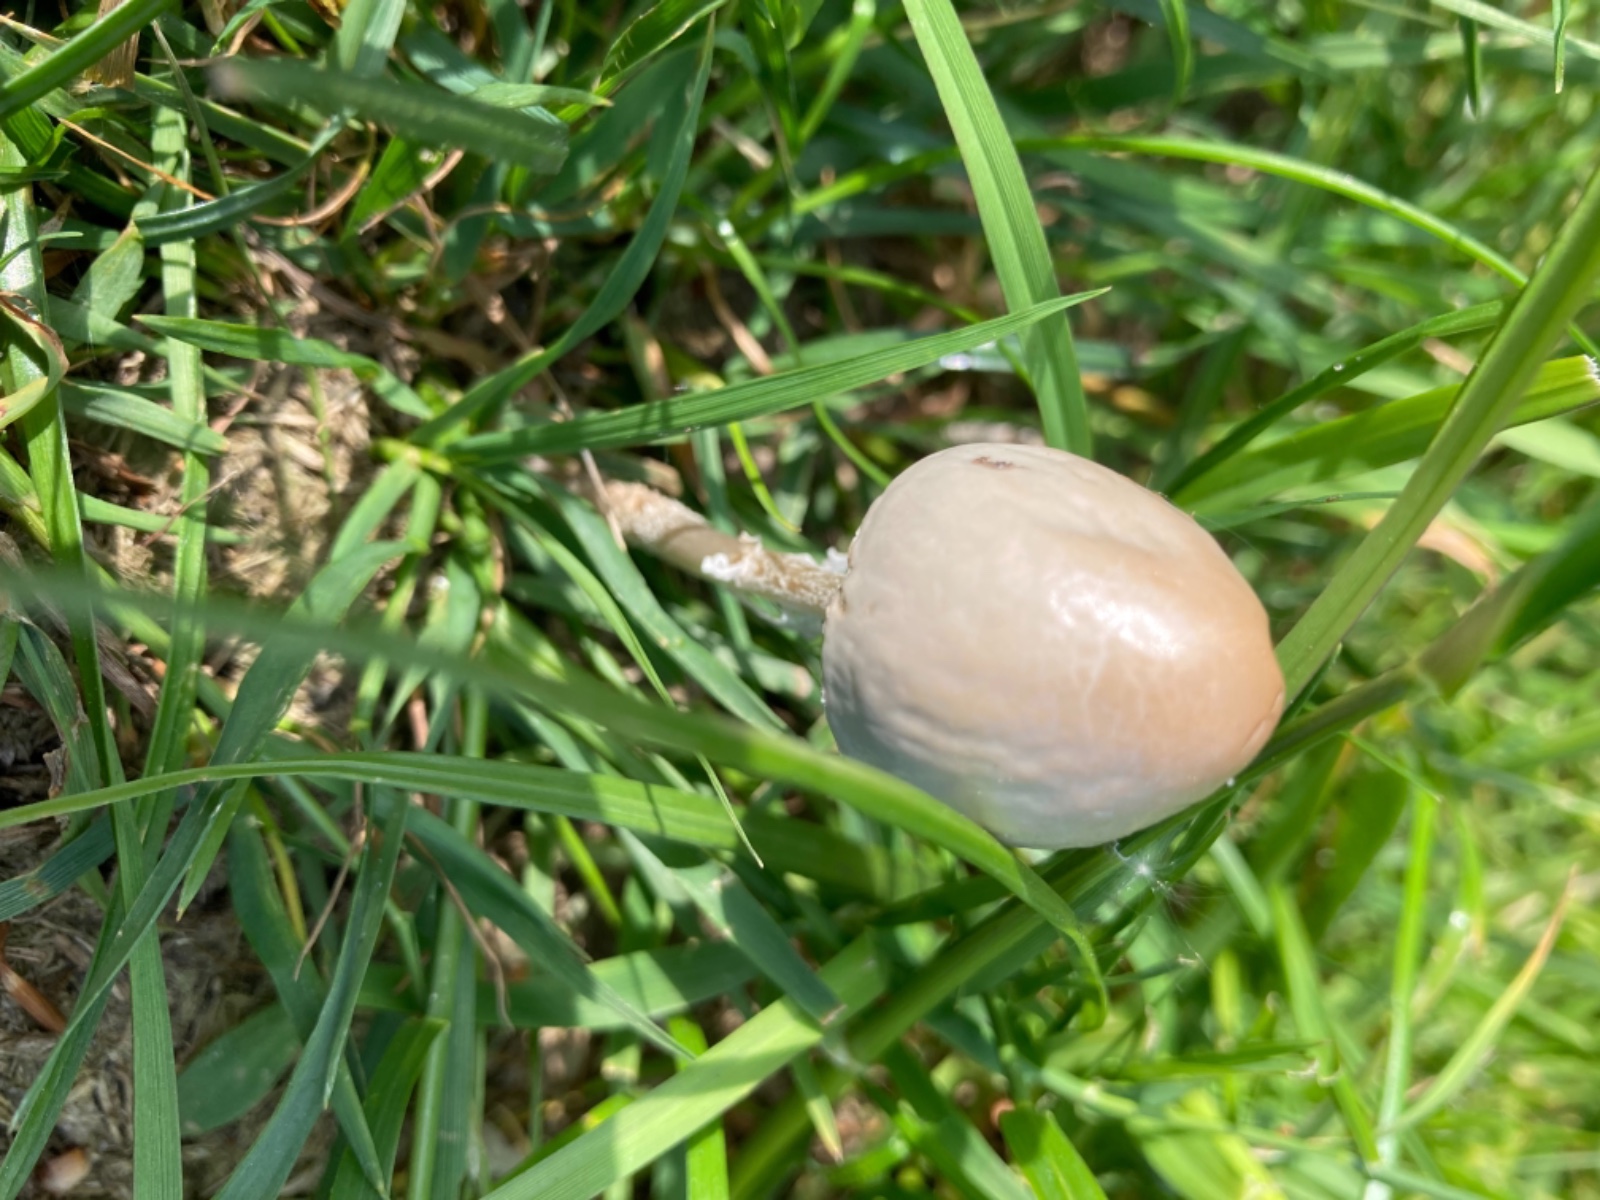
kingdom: Fungi
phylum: Basidiomycota
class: Agaricomycetes
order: Agaricales
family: Bolbitiaceae
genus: Panaeolus
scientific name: Panaeolus semiovatus
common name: ring-glanshat
